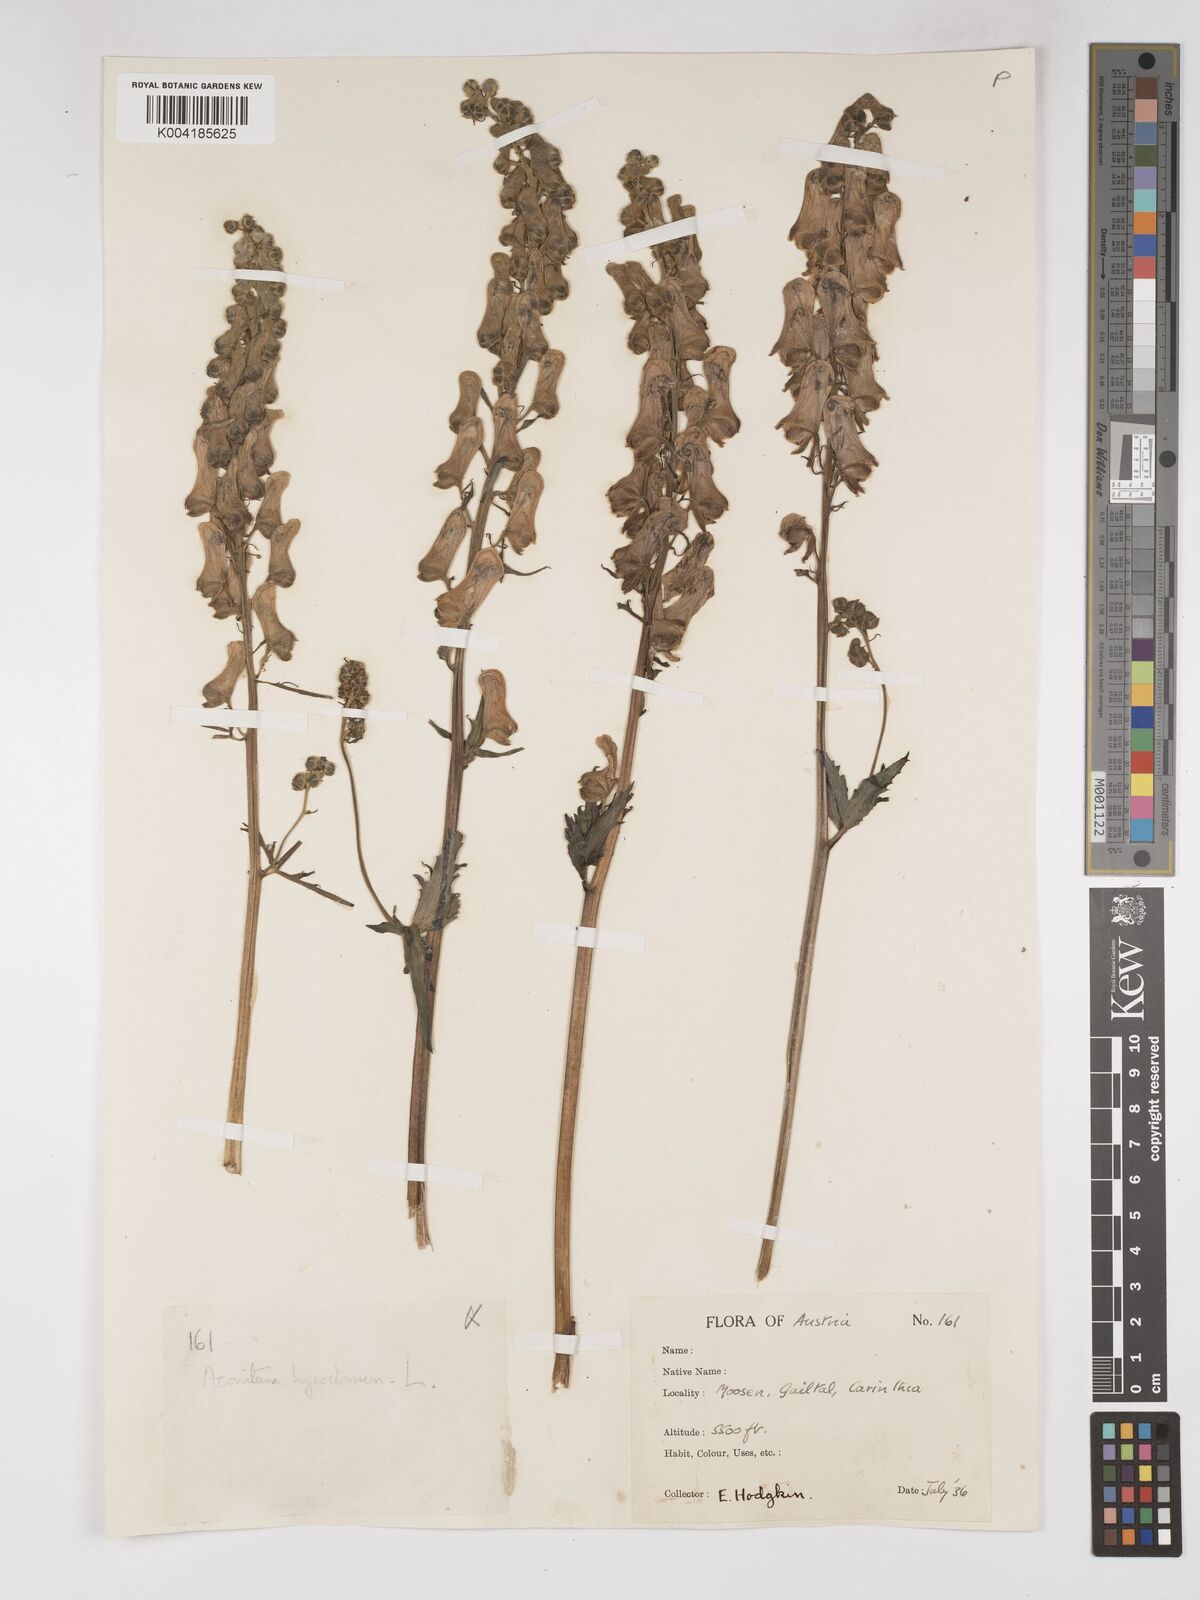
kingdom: Plantae
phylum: Tracheophyta
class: Magnoliopsida
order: Ranunculales
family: Ranunculaceae
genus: Aconitum
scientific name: Aconitum lycoctonum
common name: Wolf's-bane
